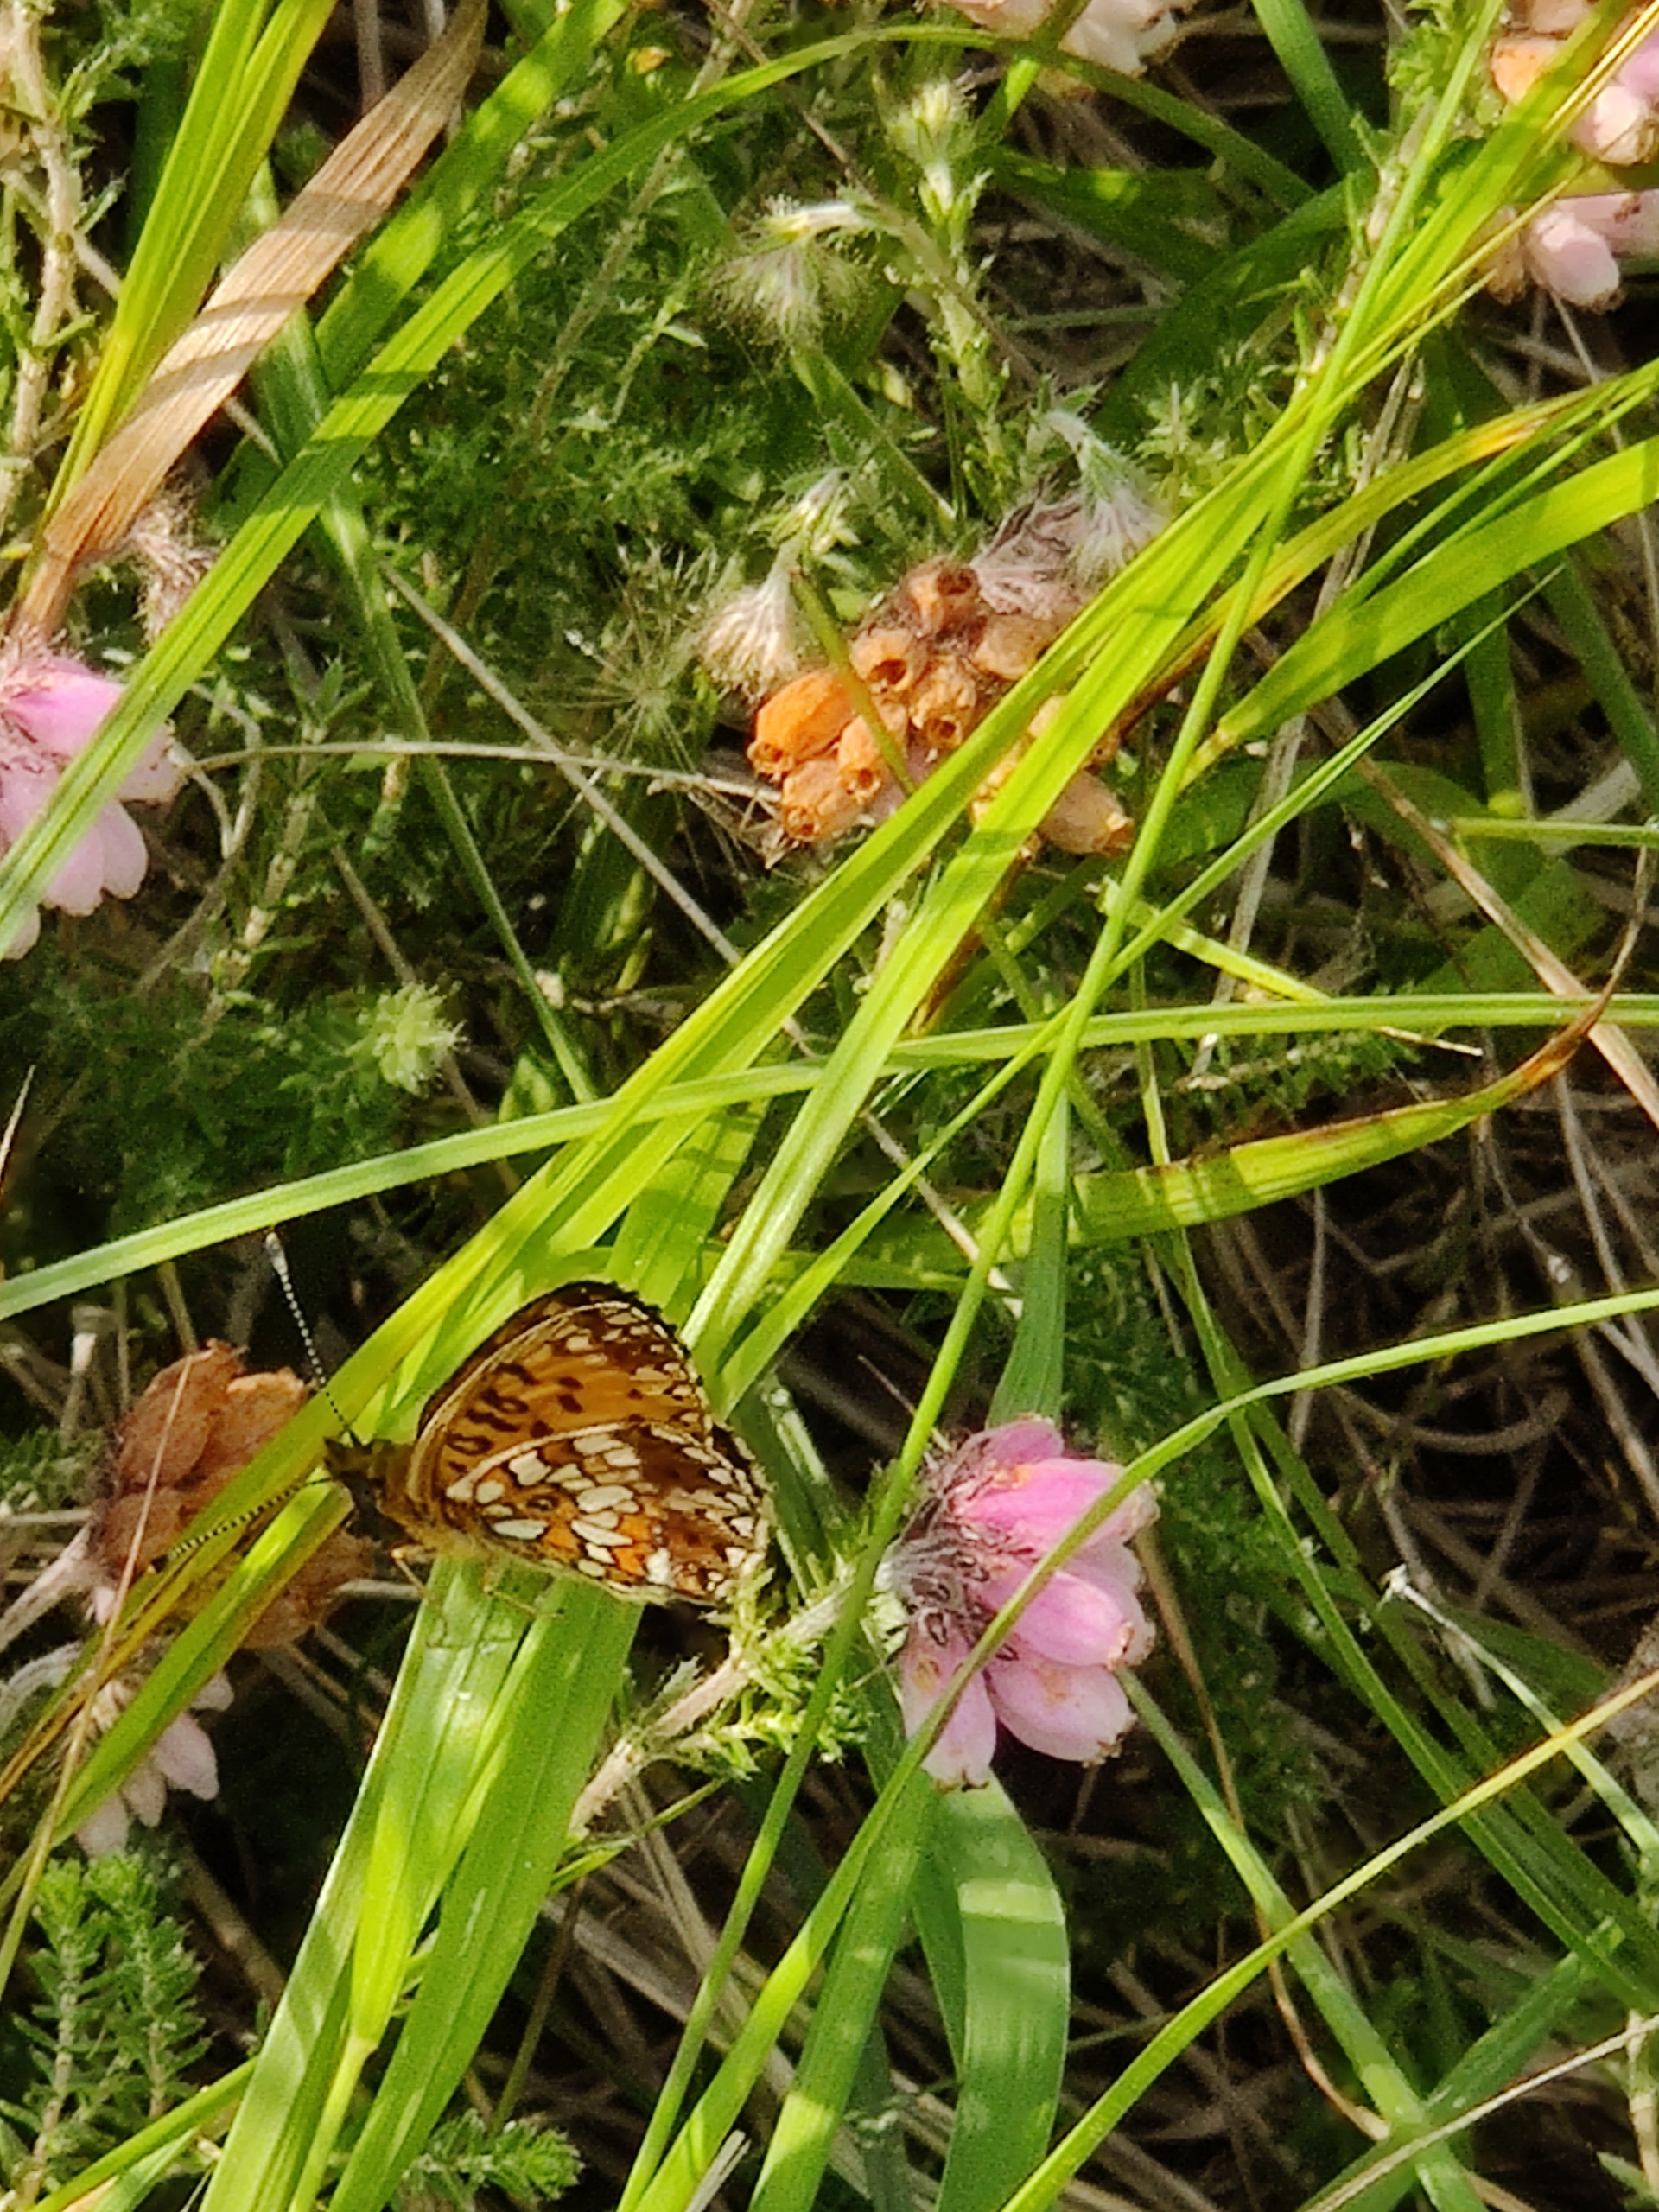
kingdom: Animalia
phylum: Arthropoda
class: Insecta
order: Lepidoptera
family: Nymphalidae
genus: Boloria
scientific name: Boloria selene
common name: Brunlig perlemorsommerfugl
